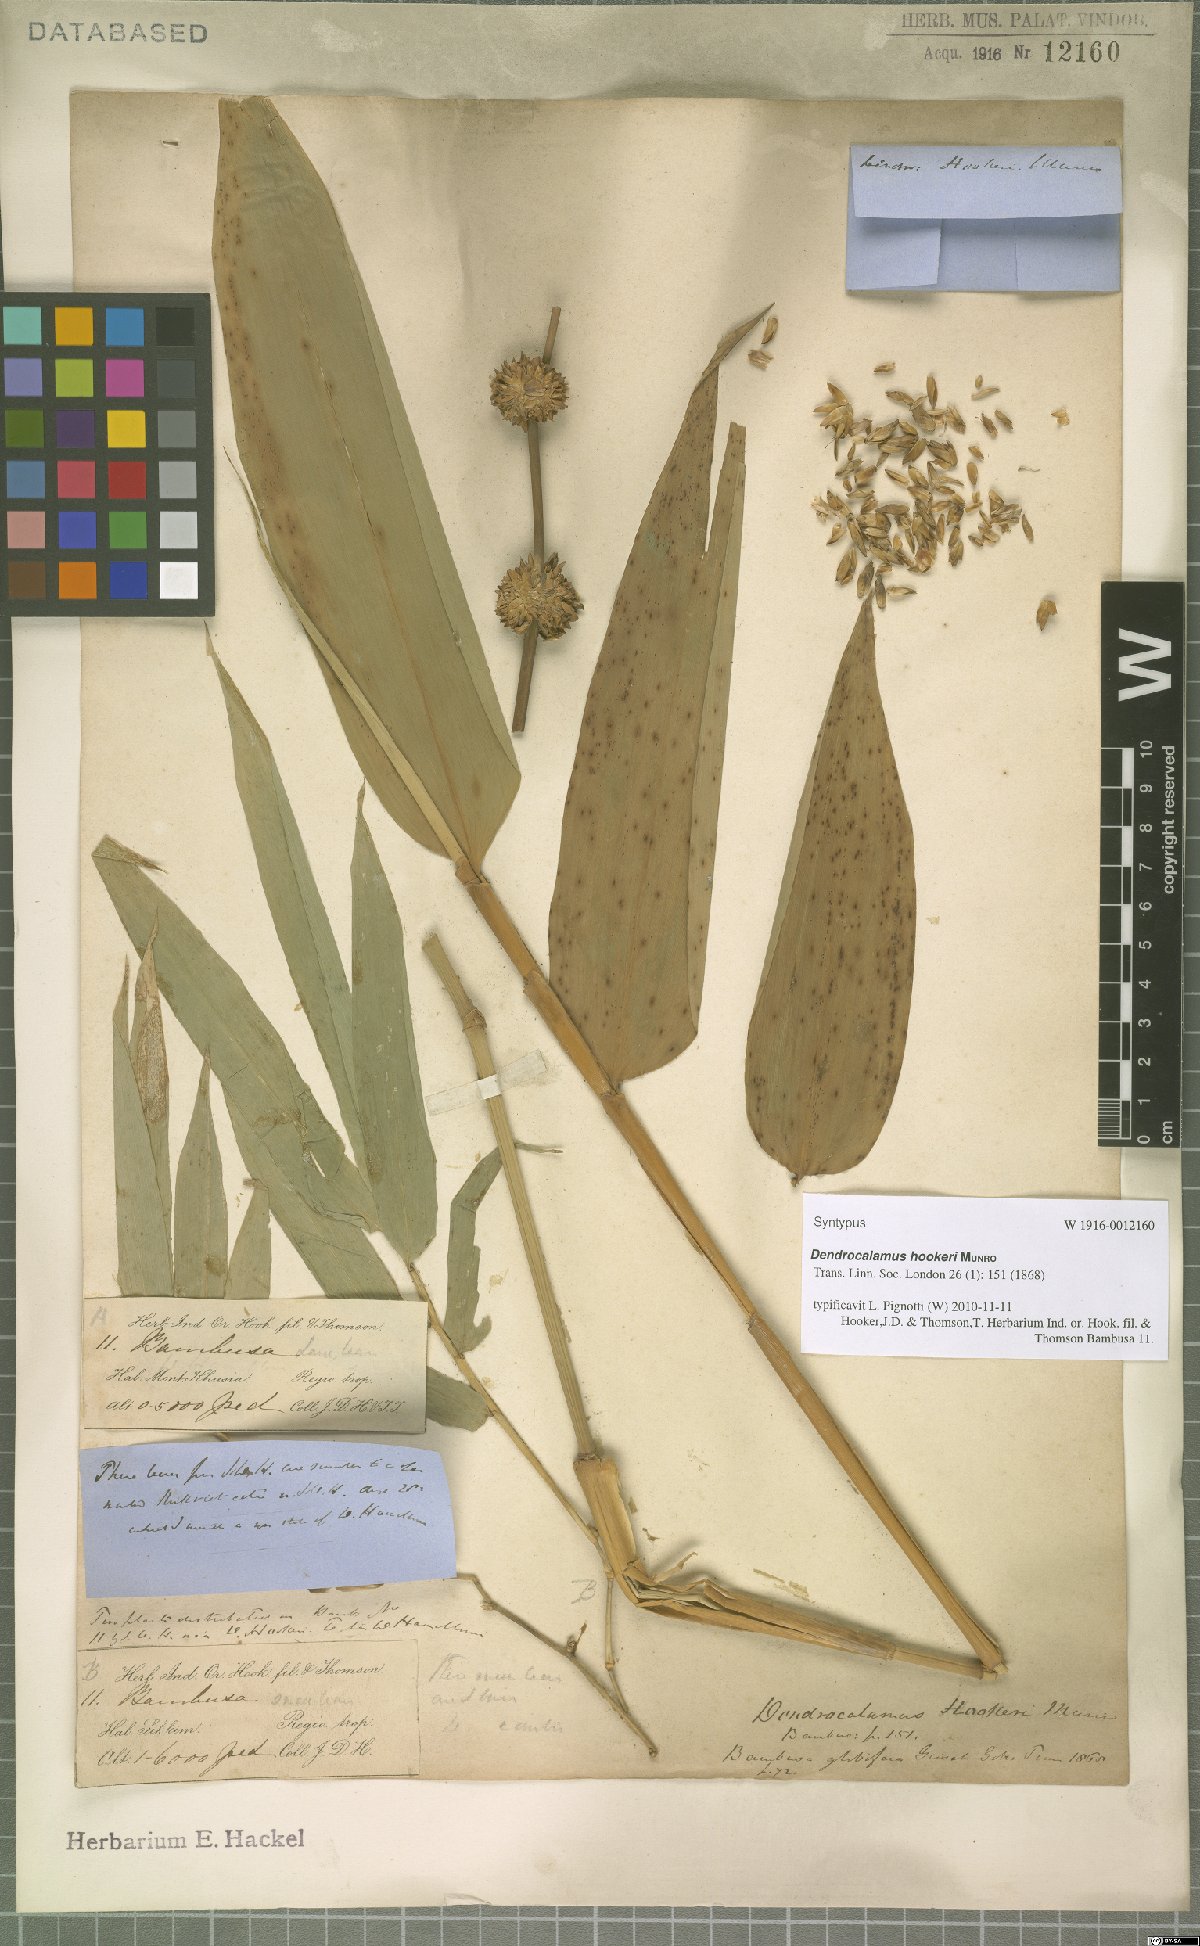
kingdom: Plantae
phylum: Tracheophyta
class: Liliopsida
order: Poales
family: Poaceae
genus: Dendrocalamus
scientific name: Dendrocalamus hookeri
